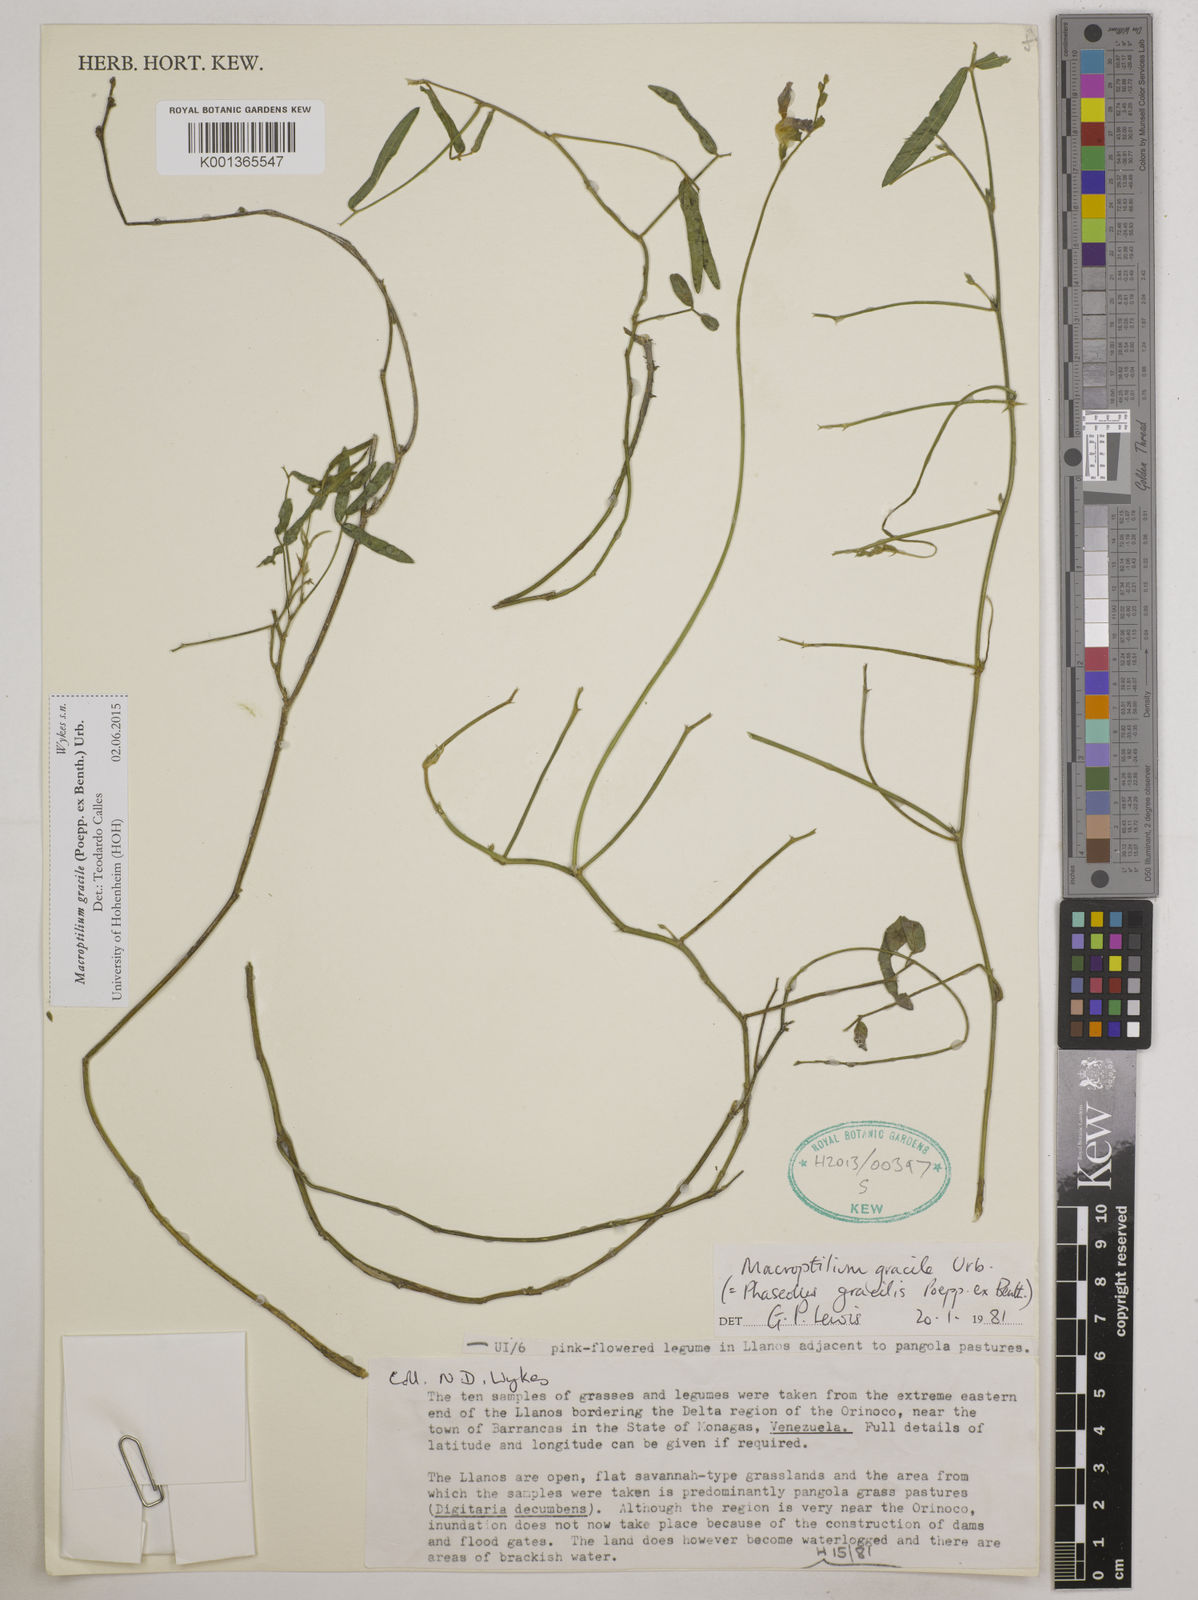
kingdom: Plantae
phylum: Tracheophyta
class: Magnoliopsida
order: Fabales
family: Fabaceae
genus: Macroptilium
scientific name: Macroptilium gracile
